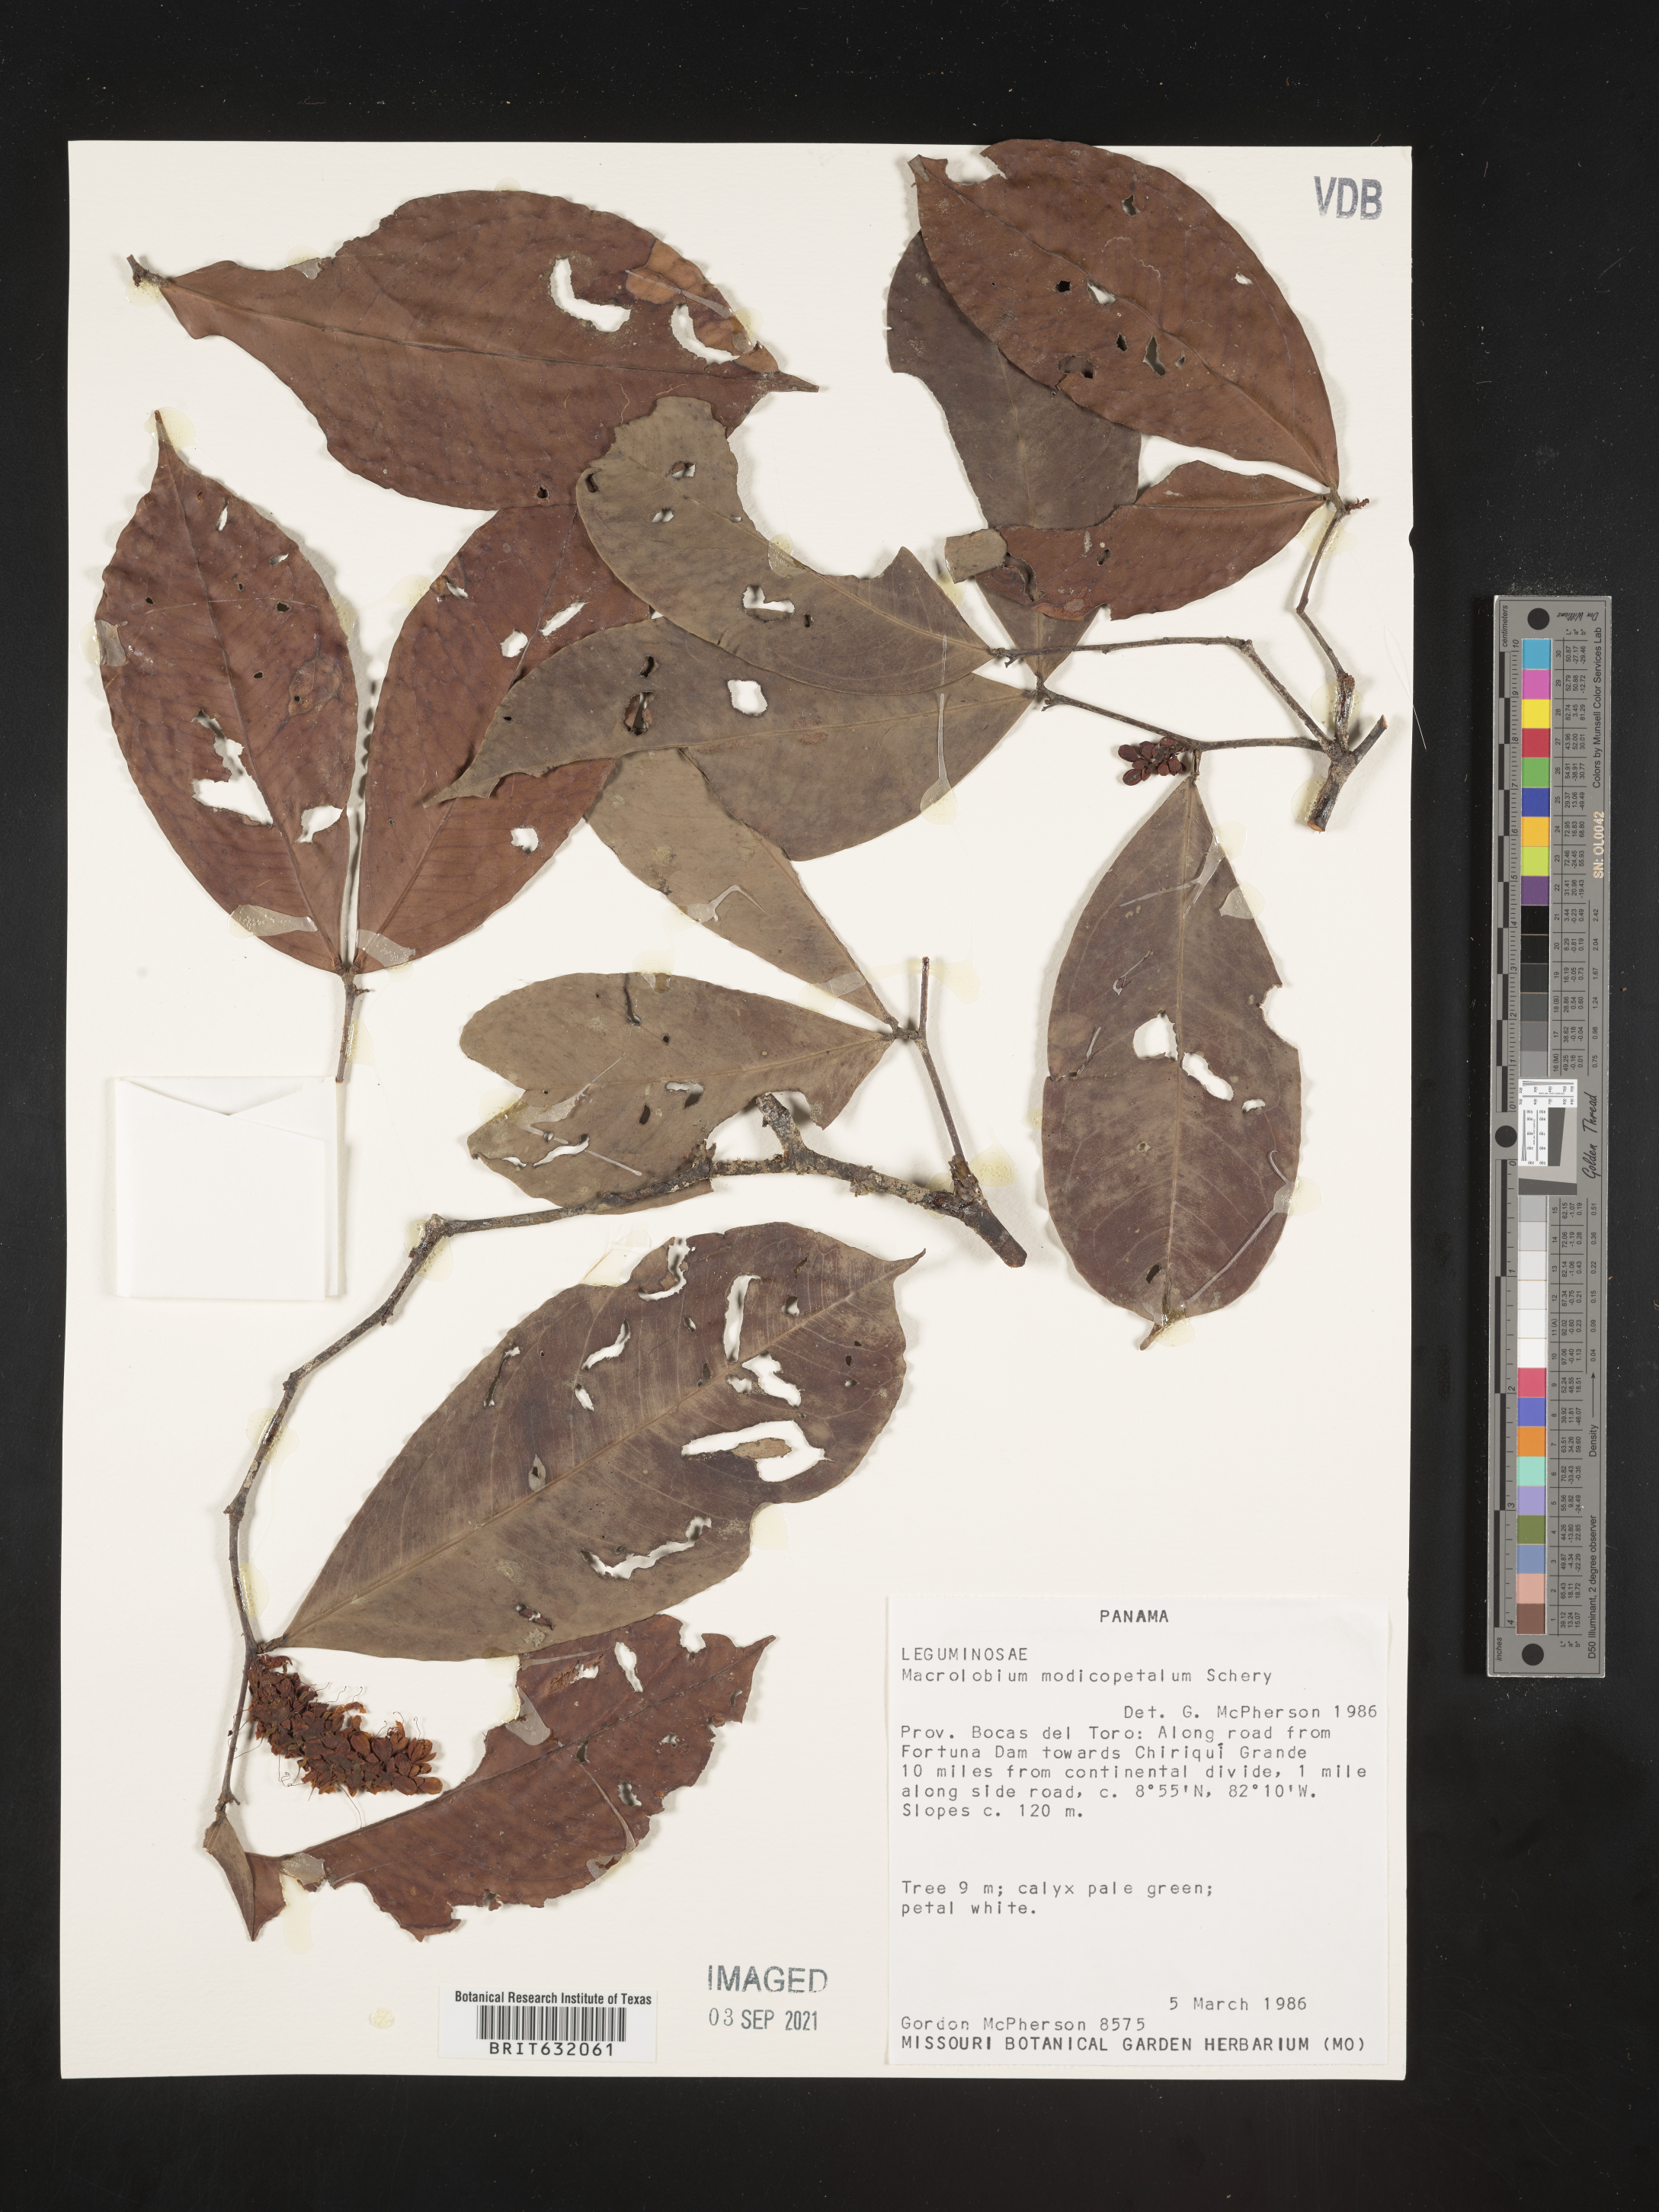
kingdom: Plantae
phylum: Tracheophyta
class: Magnoliopsida
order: Fabales
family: Fabaceae
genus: Macrolobium
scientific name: Macrolobium
